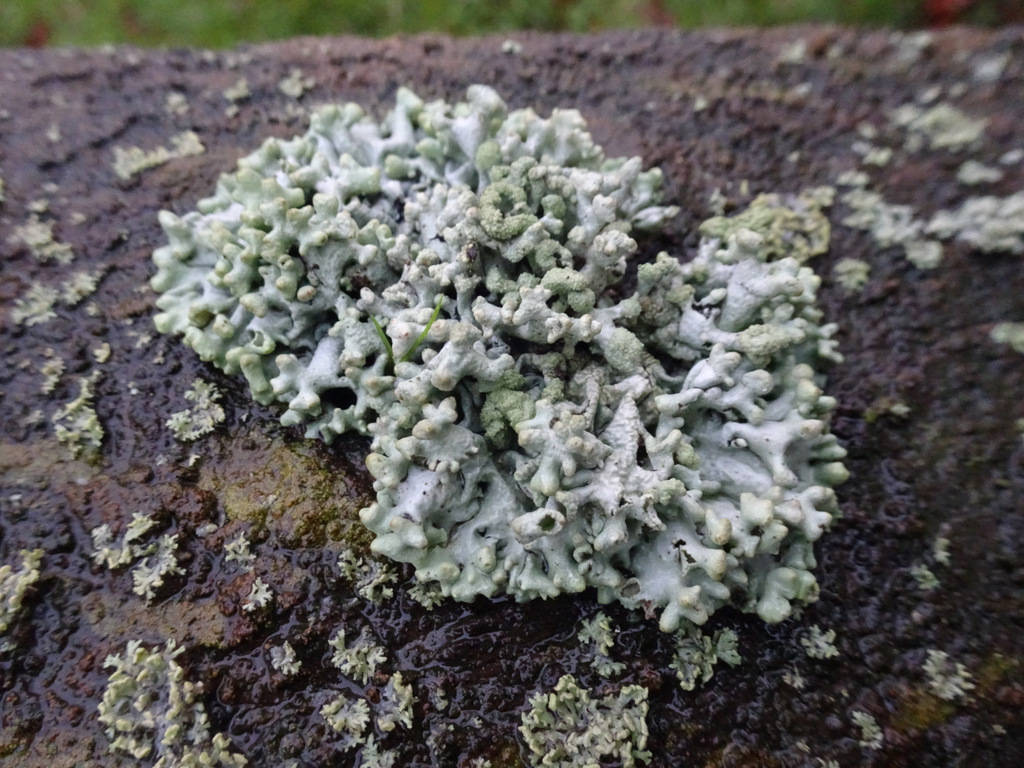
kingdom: Fungi
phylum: Ascomycota
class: Lecanoromycetes
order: Lecanorales
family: Parmeliaceae
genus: Hypogymnia
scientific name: Hypogymnia tubulosa
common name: finger-kvistlav
